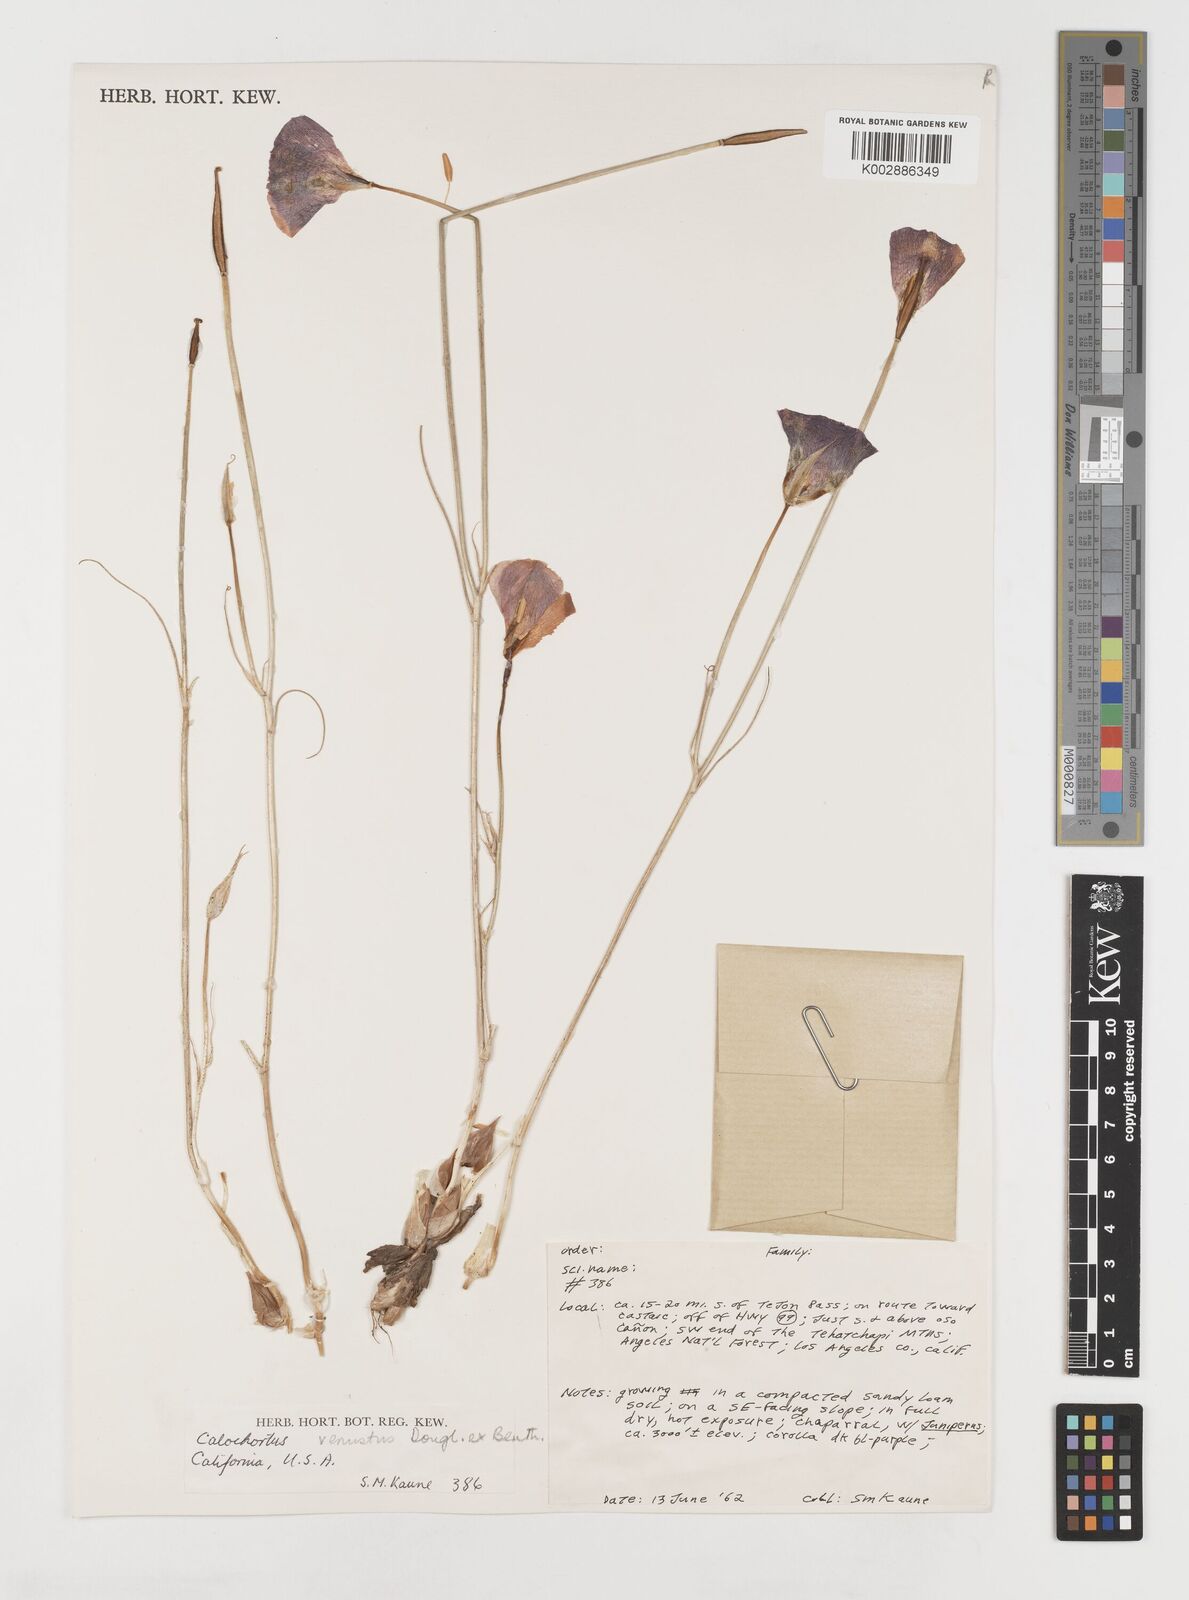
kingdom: Plantae
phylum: Tracheophyta
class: Liliopsida
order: Liliales
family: Liliaceae
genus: Calochortus
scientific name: Calochortus venustus
